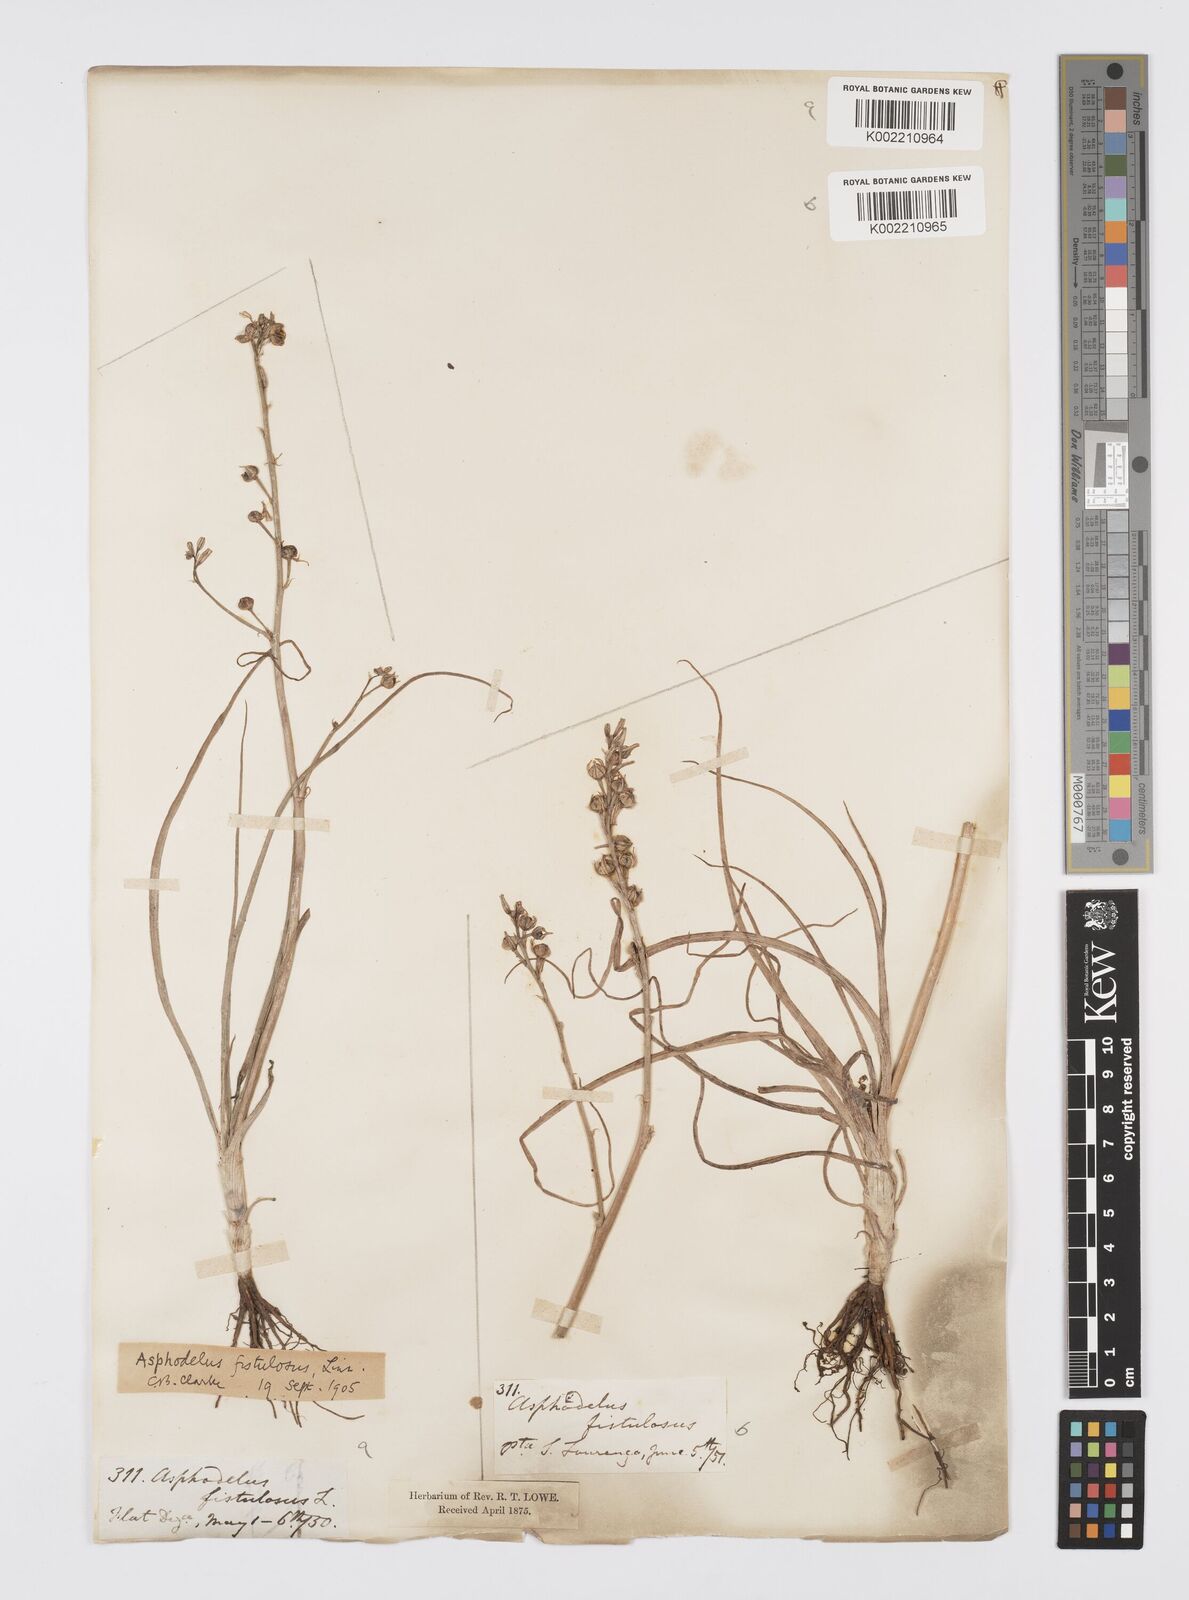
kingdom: Plantae
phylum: Tracheophyta
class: Liliopsida
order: Asparagales
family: Asphodelaceae
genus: Asphodelus
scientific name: Asphodelus fistulosus
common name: Onionweed
